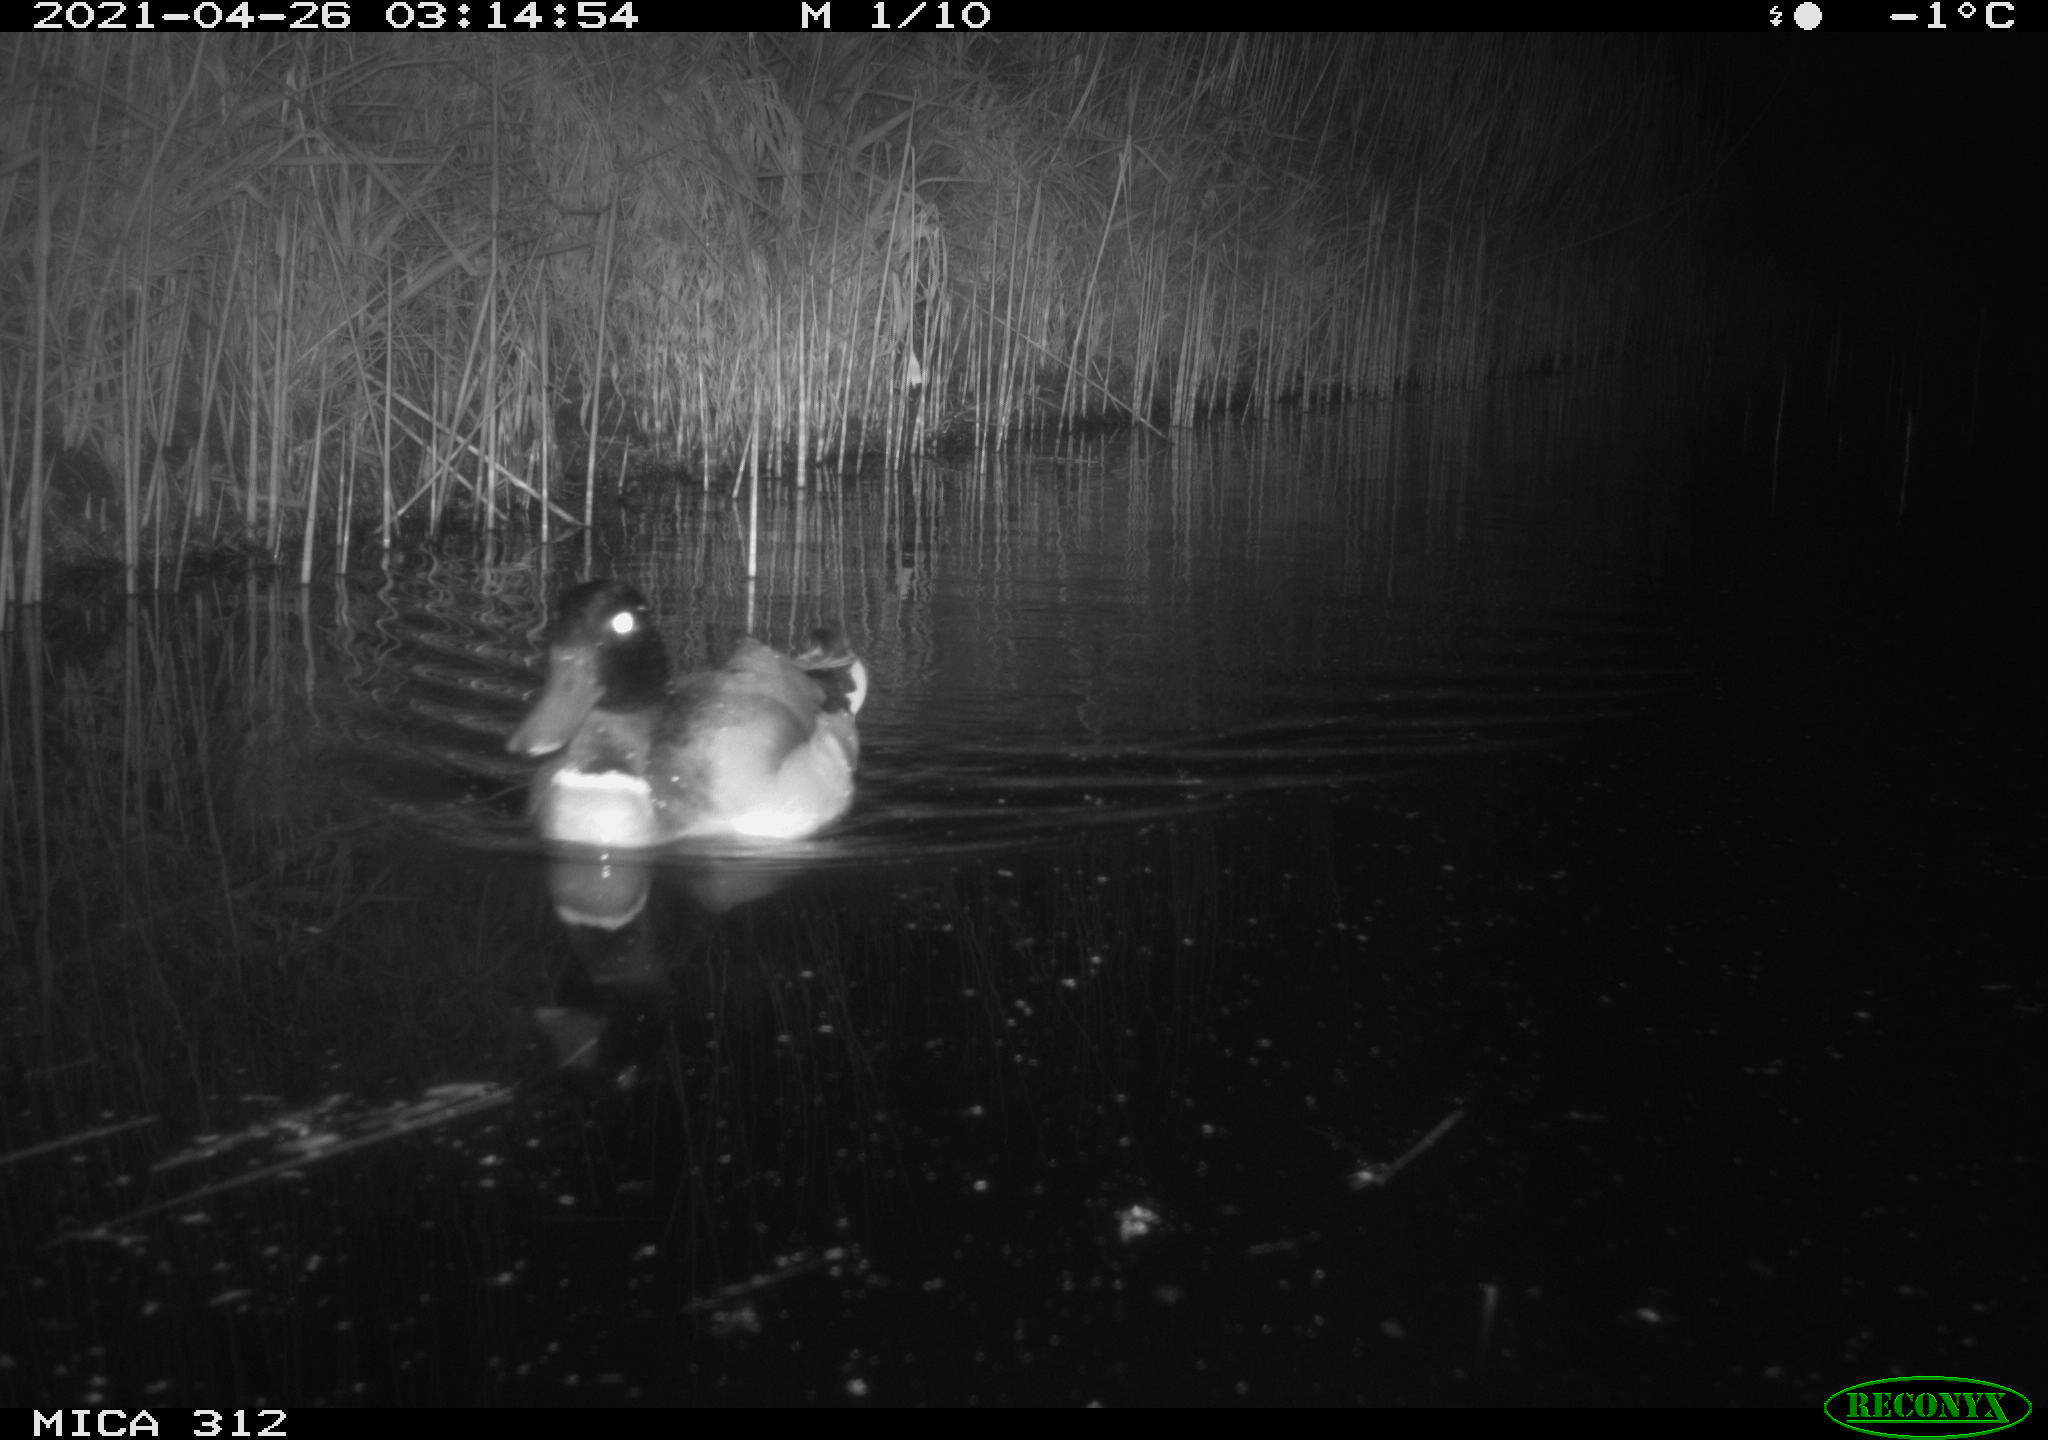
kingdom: Animalia
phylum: Chordata
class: Aves
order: Anseriformes
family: Anatidae
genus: Anas
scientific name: Anas platyrhynchos
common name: Mallard
